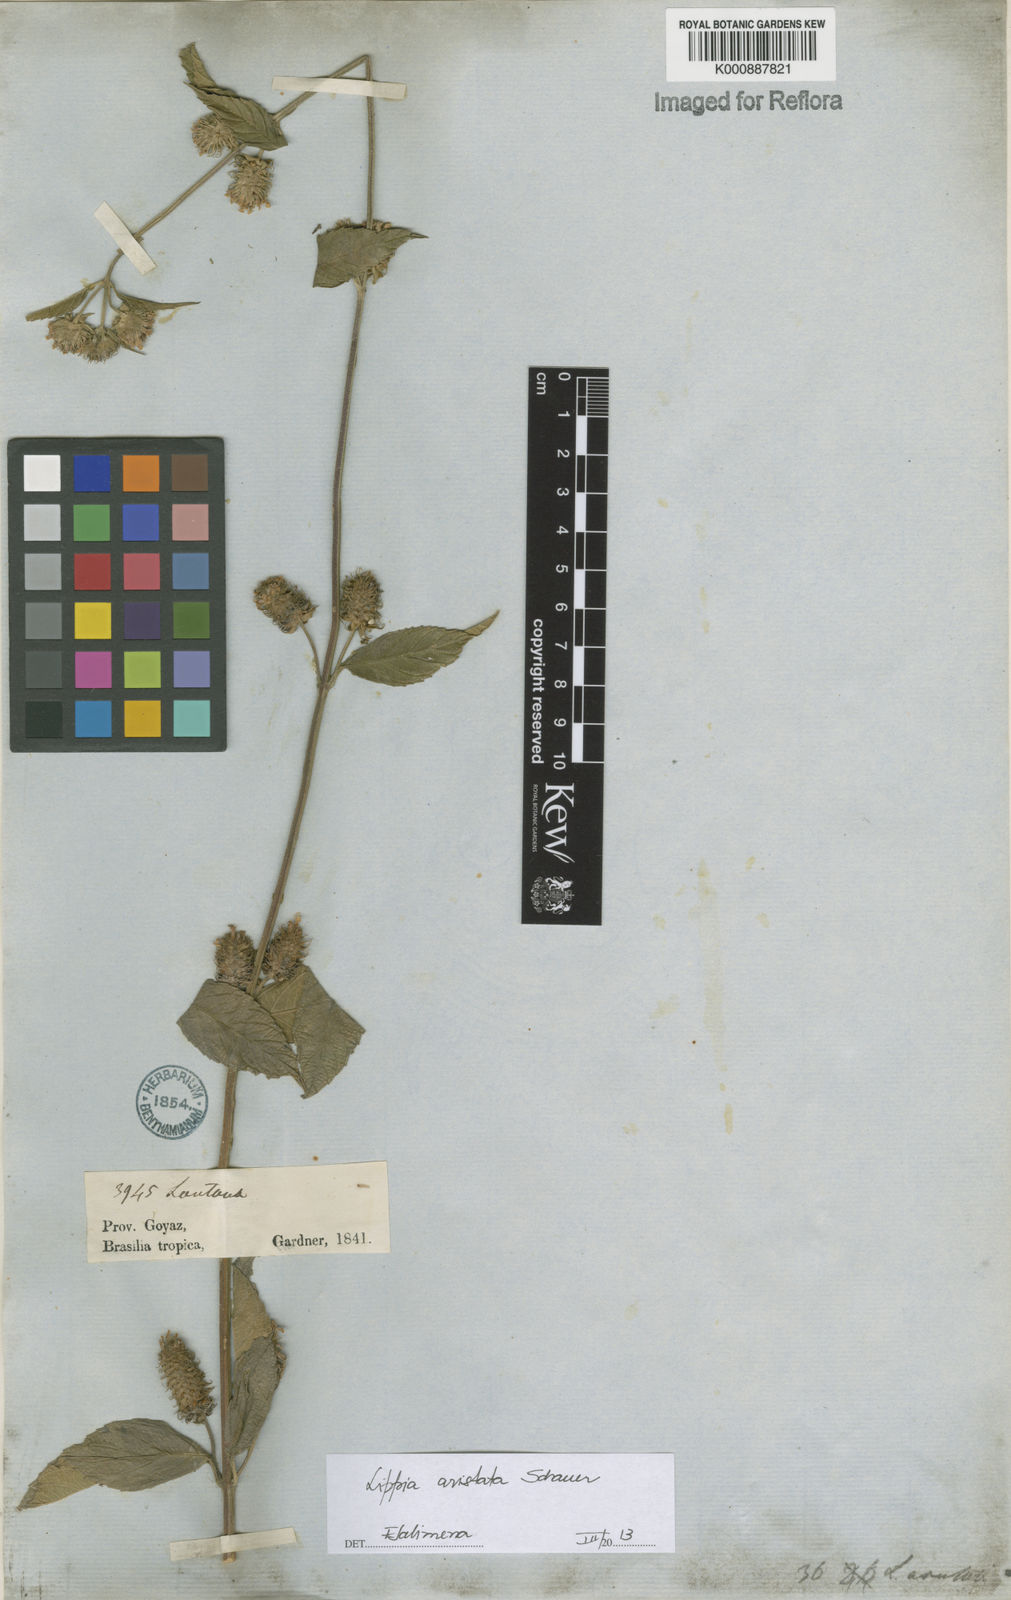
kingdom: Plantae
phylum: Tracheophyta
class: Magnoliopsida
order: Lamiales
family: Verbenaceae
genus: Lippia
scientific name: Lippia aristata
